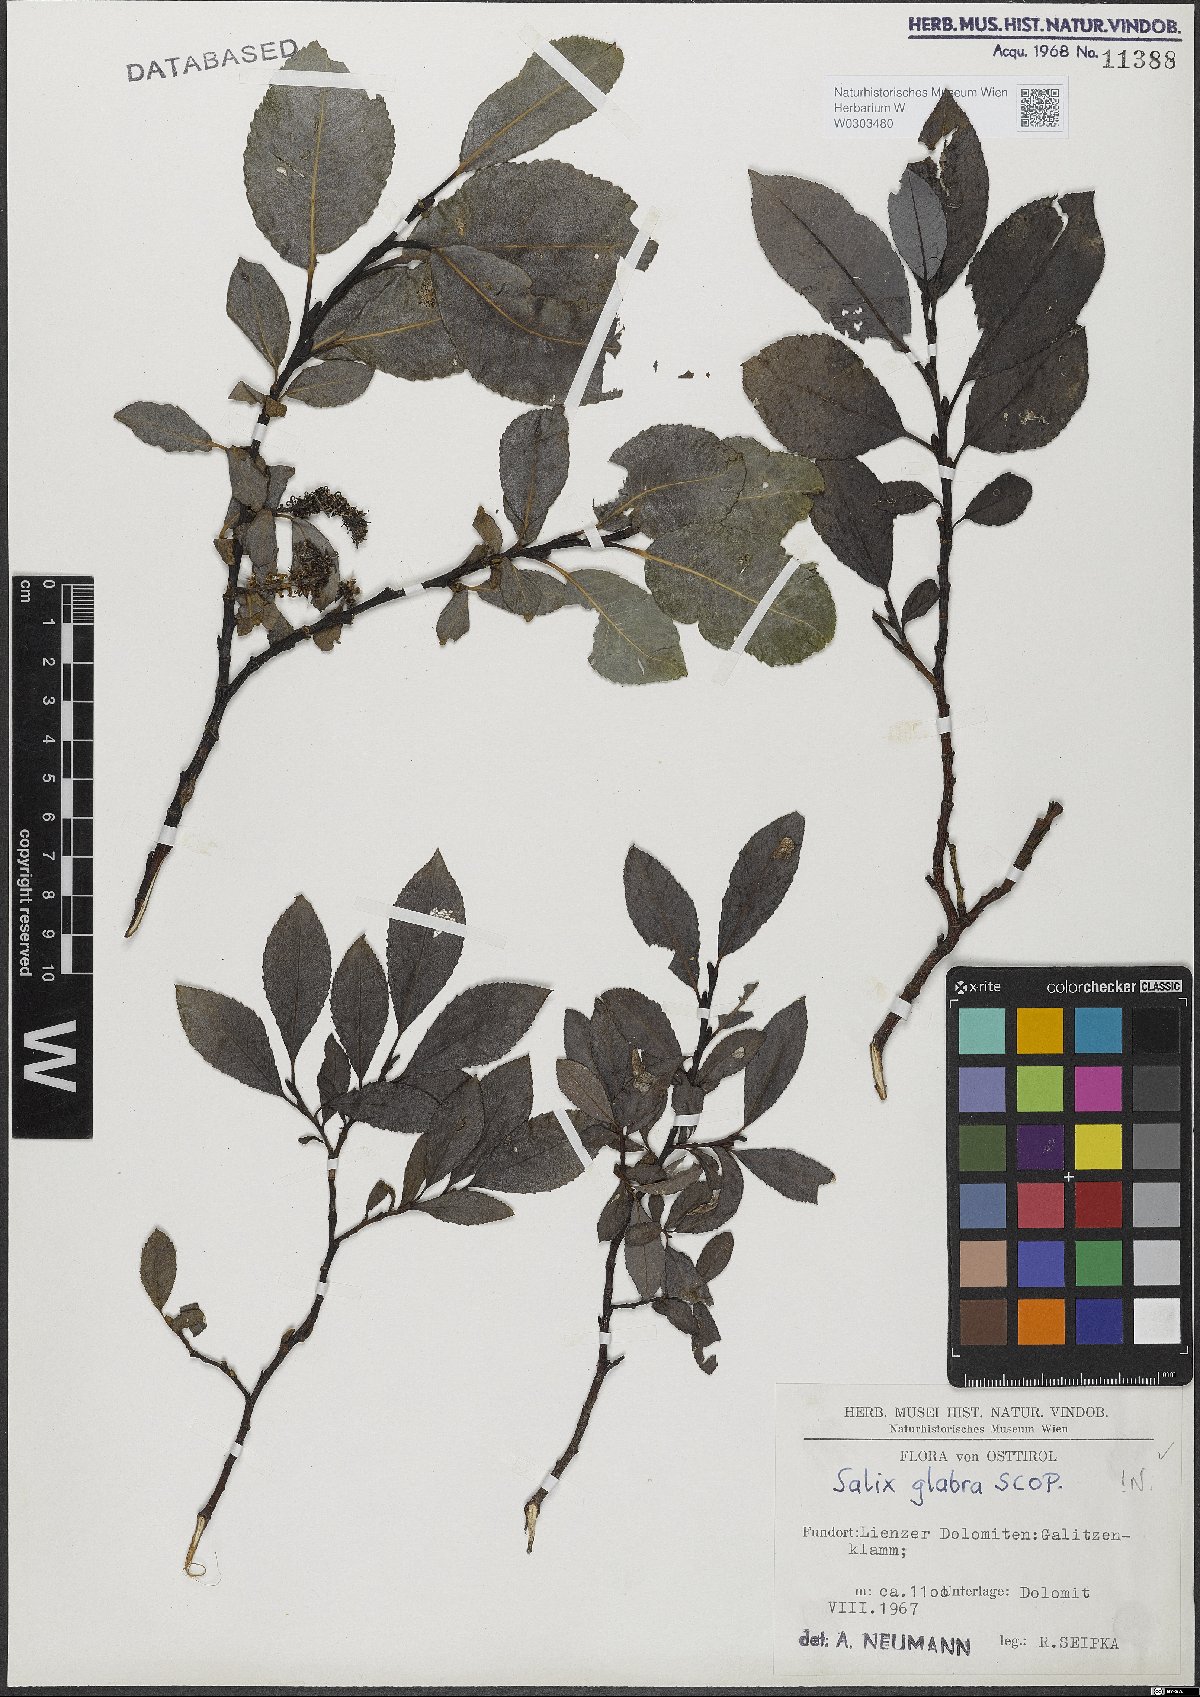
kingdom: Plantae
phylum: Tracheophyta
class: Magnoliopsida
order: Malpighiales
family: Salicaceae
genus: Salix
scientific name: Salix glabra
